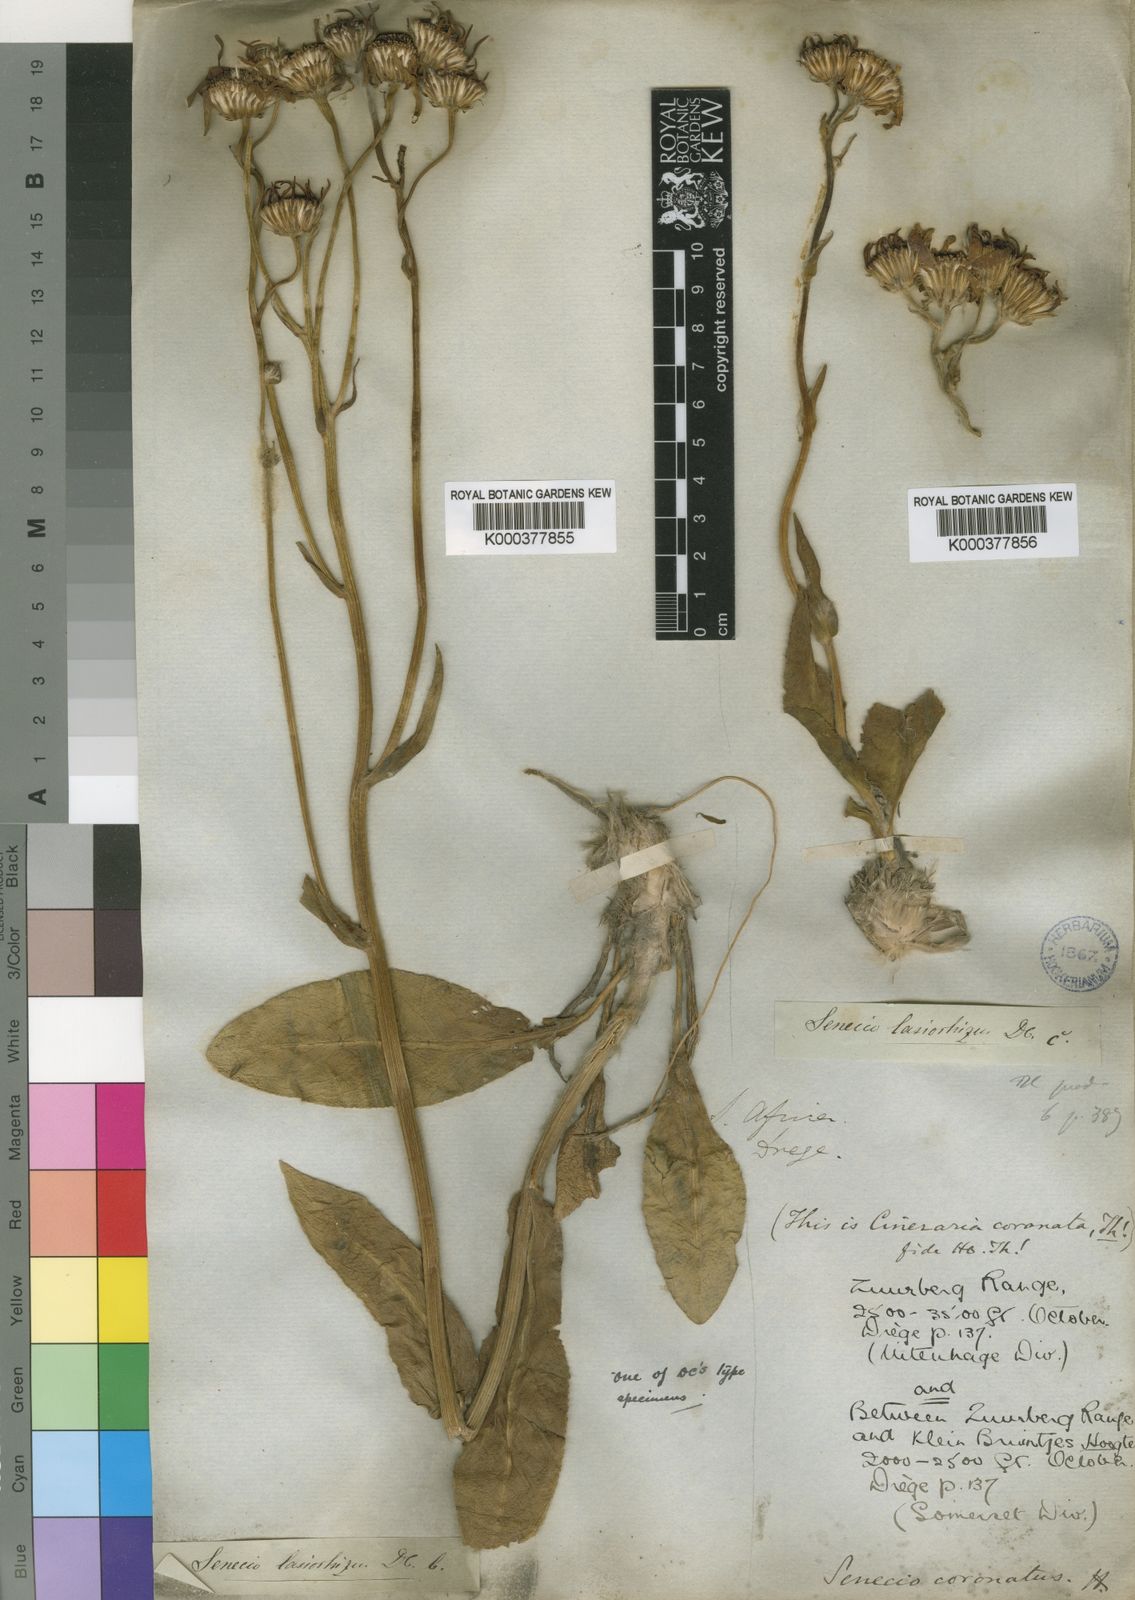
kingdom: Plantae
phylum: Tracheophyta
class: Magnoliopsida
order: Asterales
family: Asteraceae
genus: Senecio
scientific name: Senecio coronatus
